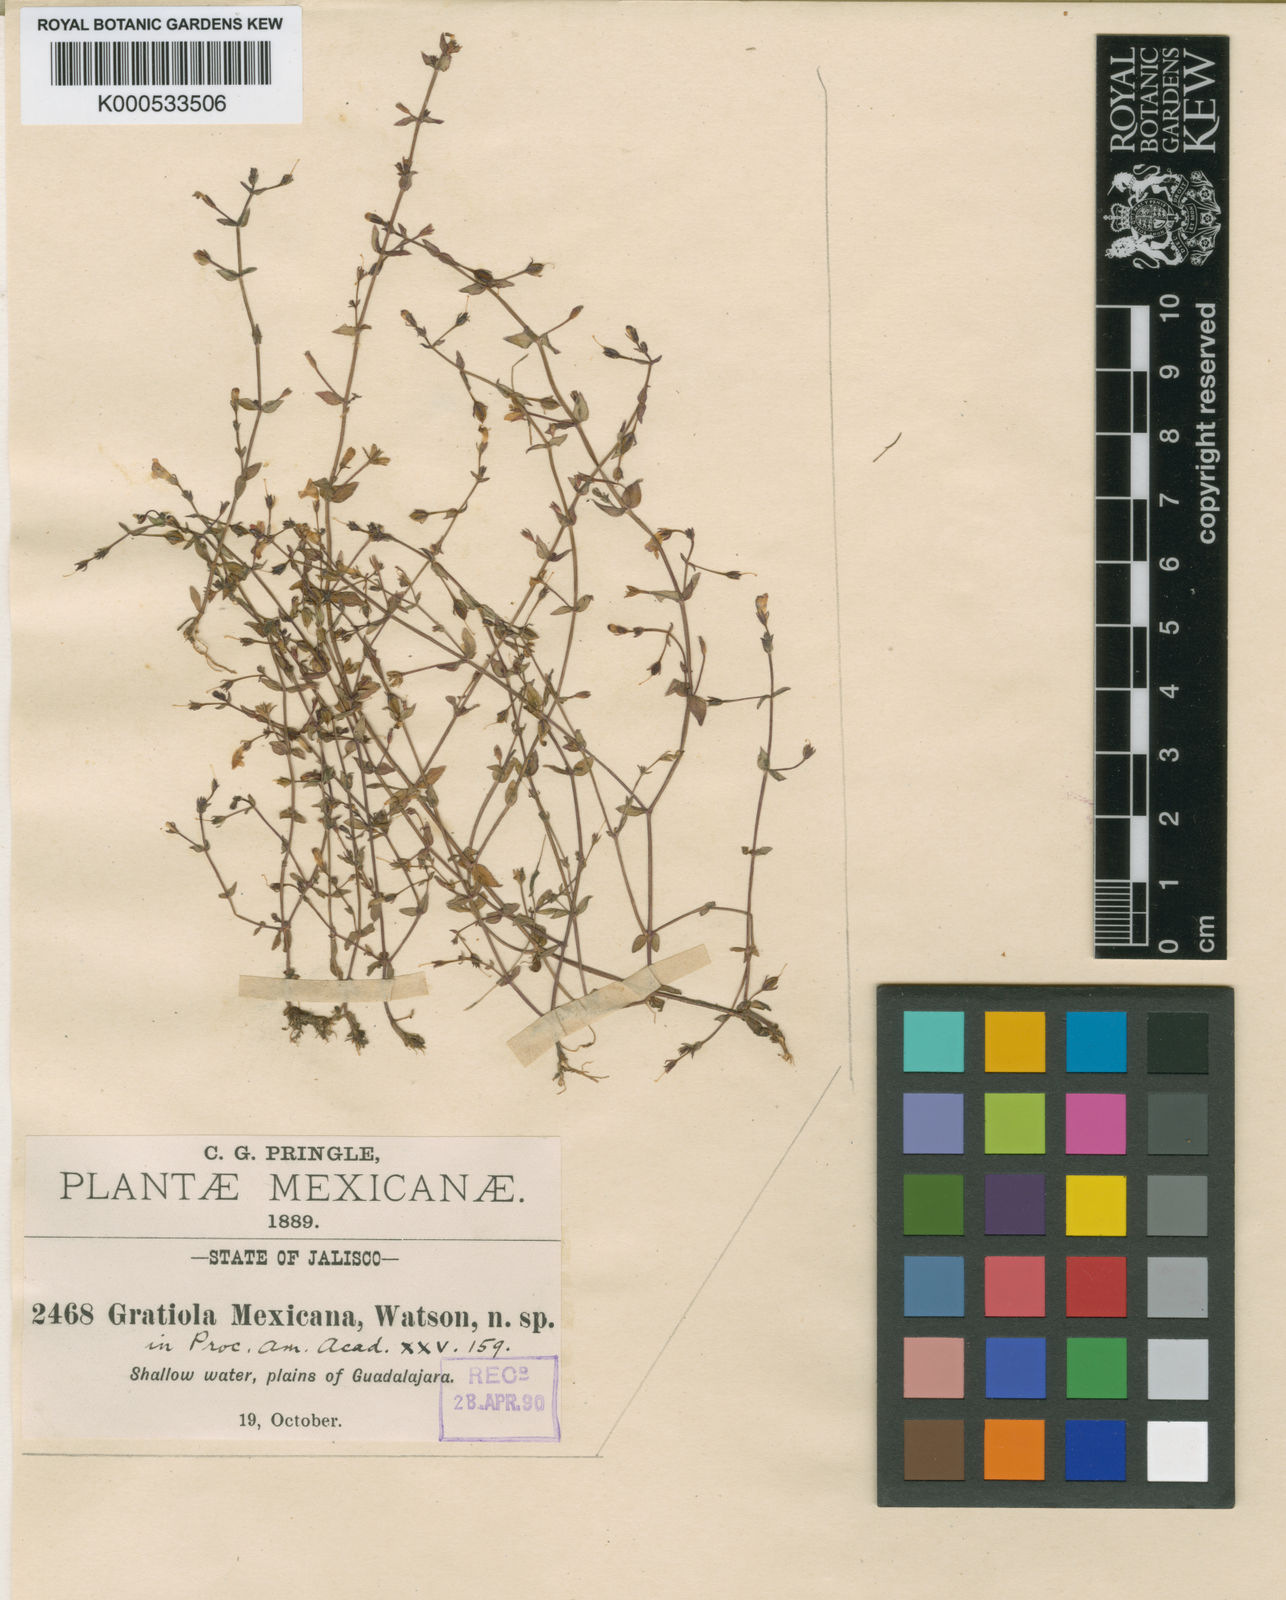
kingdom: Plantae
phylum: Tracheophyta
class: Magnoliopsida
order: Lamiales
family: Linderniaceae
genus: Lindernia
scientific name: Lindernia mexicana
